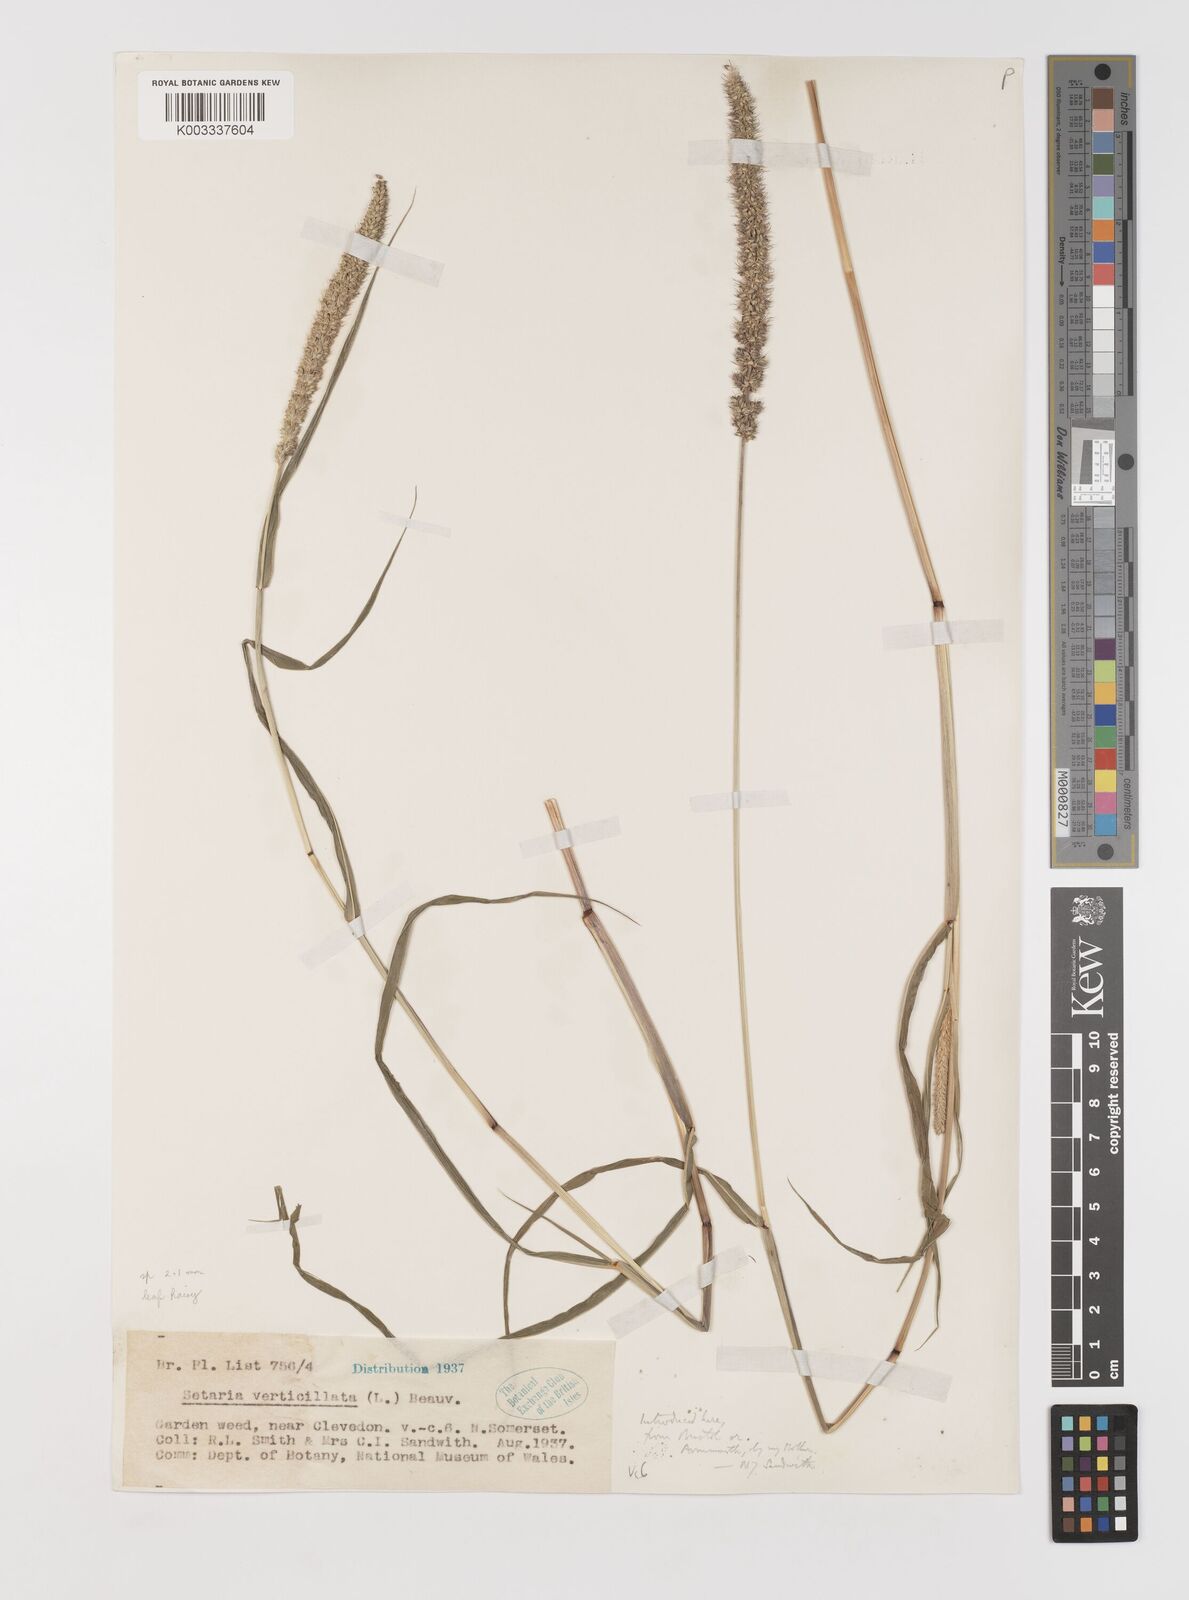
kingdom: Plantae
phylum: Tracheophyta
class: Liliopsida
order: Poales
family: Poaceae
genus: Setaria
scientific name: Setaria verticillata
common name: Hooked bristlegrass
